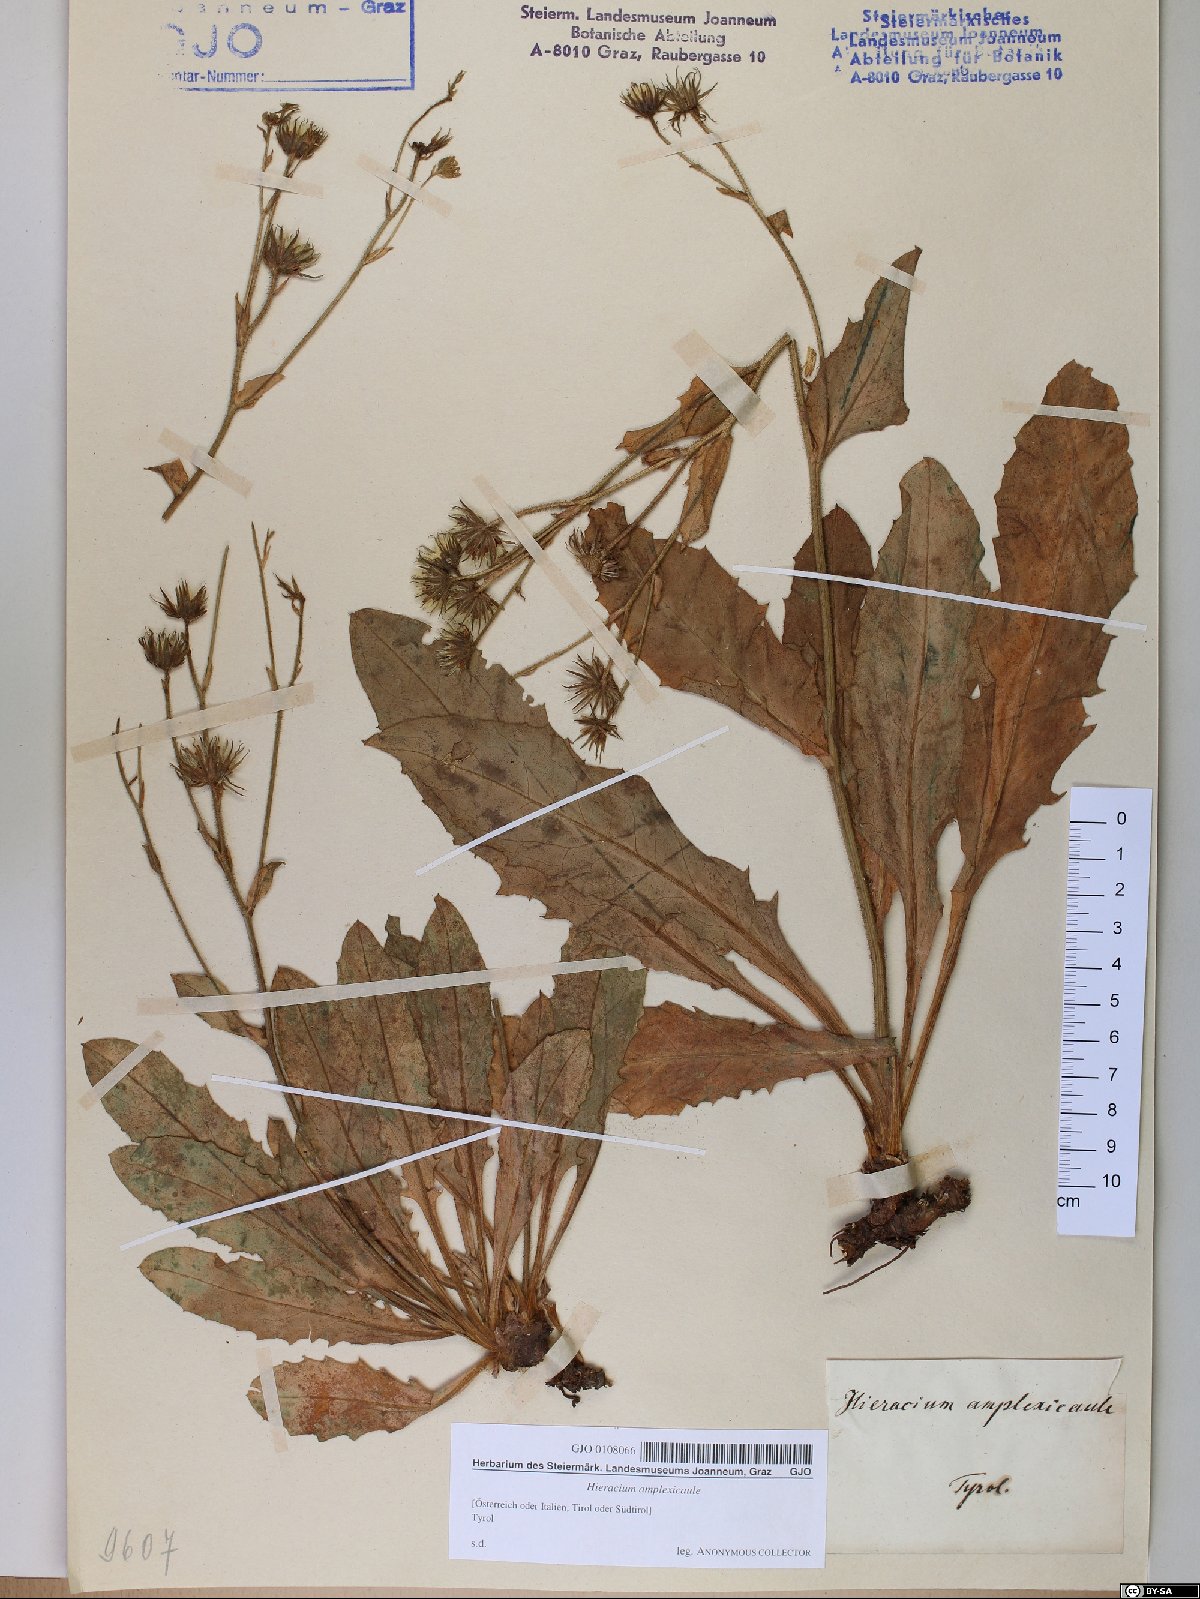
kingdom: Plantae
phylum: Tracheophyta
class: Magnoliopsida
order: Asterales
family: Asteraceae
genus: Hieracium
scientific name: Hieracium amplexicaule
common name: Sticky hawkweed
